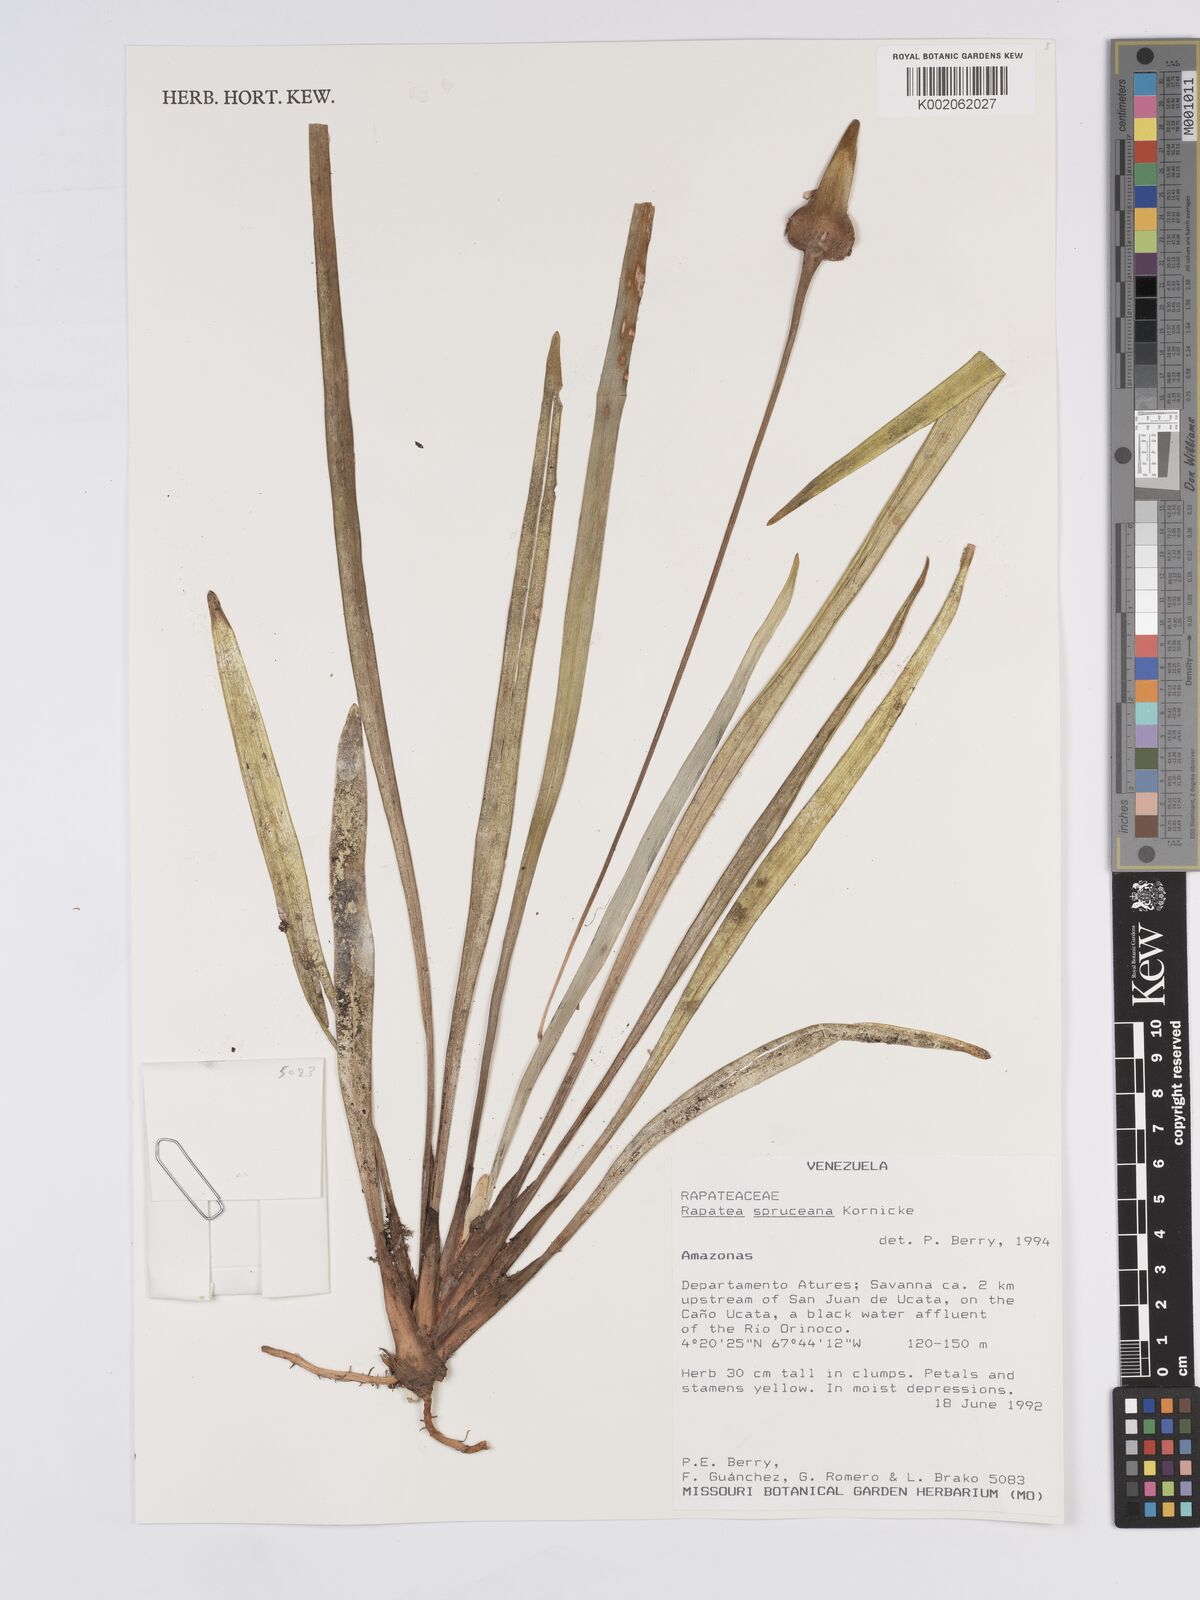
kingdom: Plantae
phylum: Tracheophyta
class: Liliopsida
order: Poales
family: Rapateaceae
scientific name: Rapateaceae
